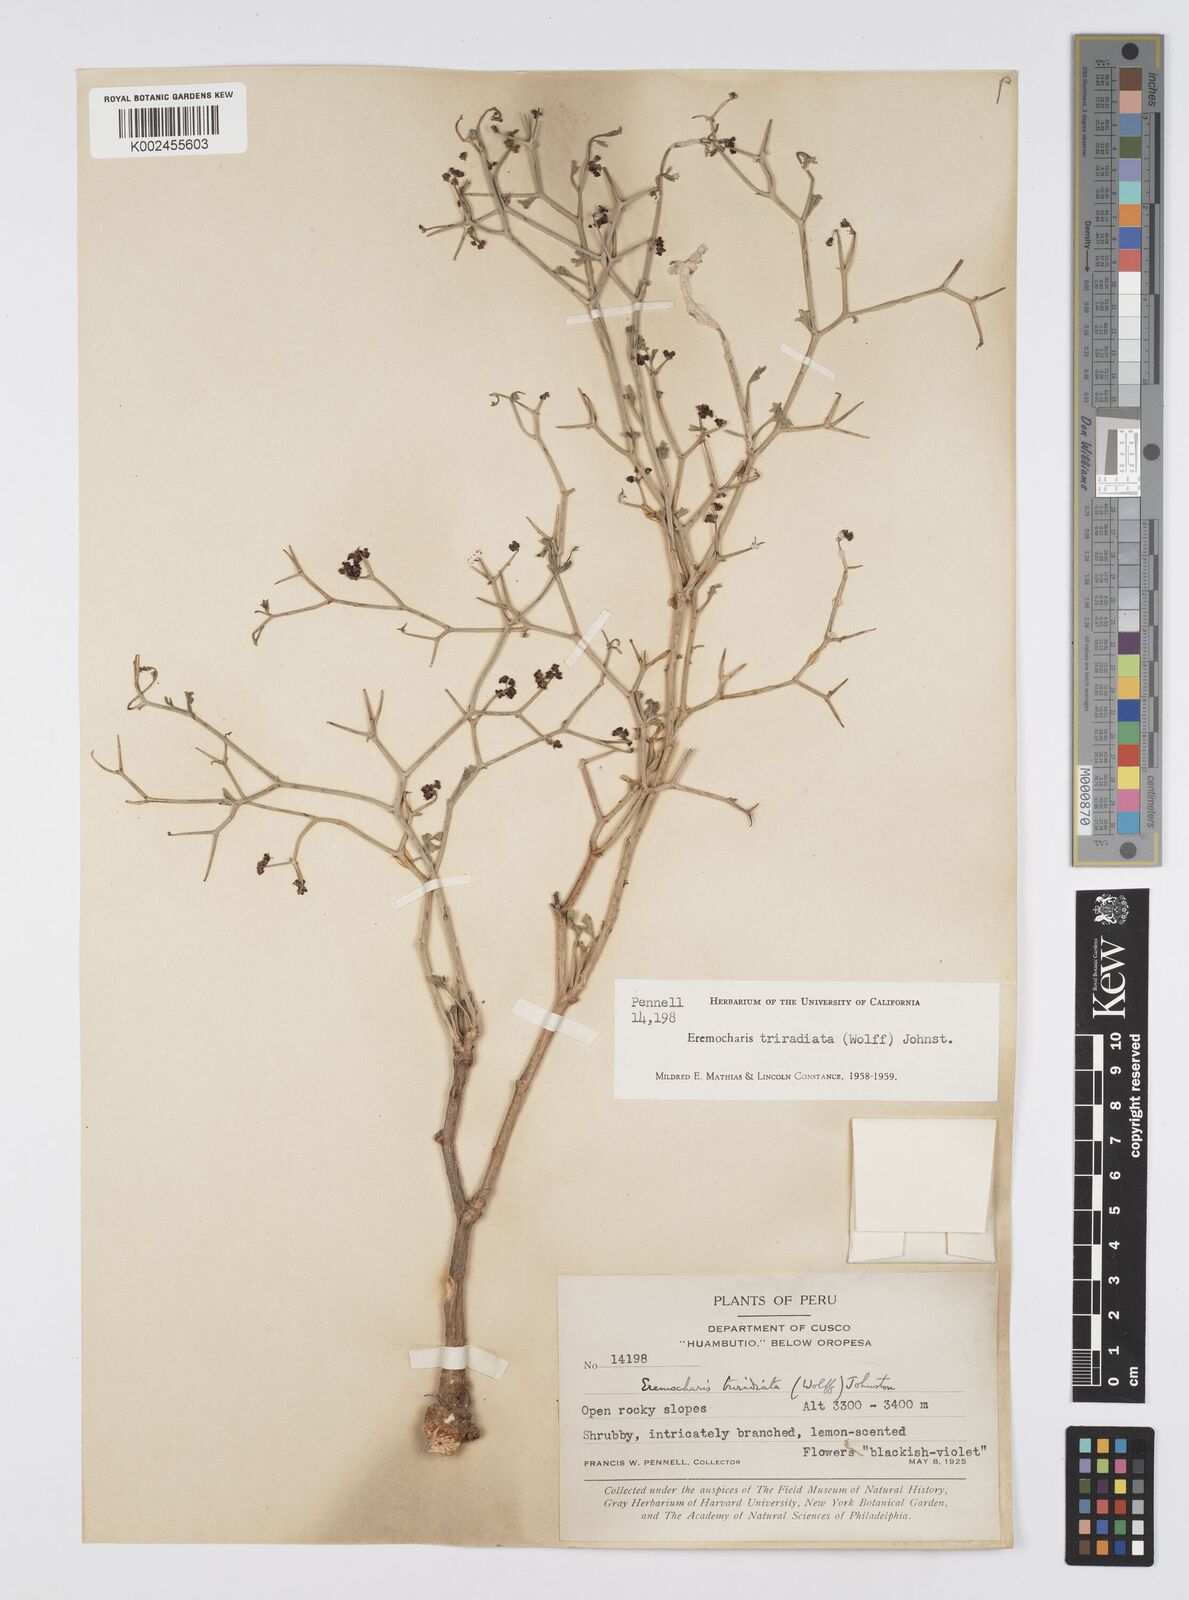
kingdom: Plantae
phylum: Tracheophyta
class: Magnoliopsida
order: Apiales
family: Apiaceae
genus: Eremocharis
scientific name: Eremocharis triradiata
